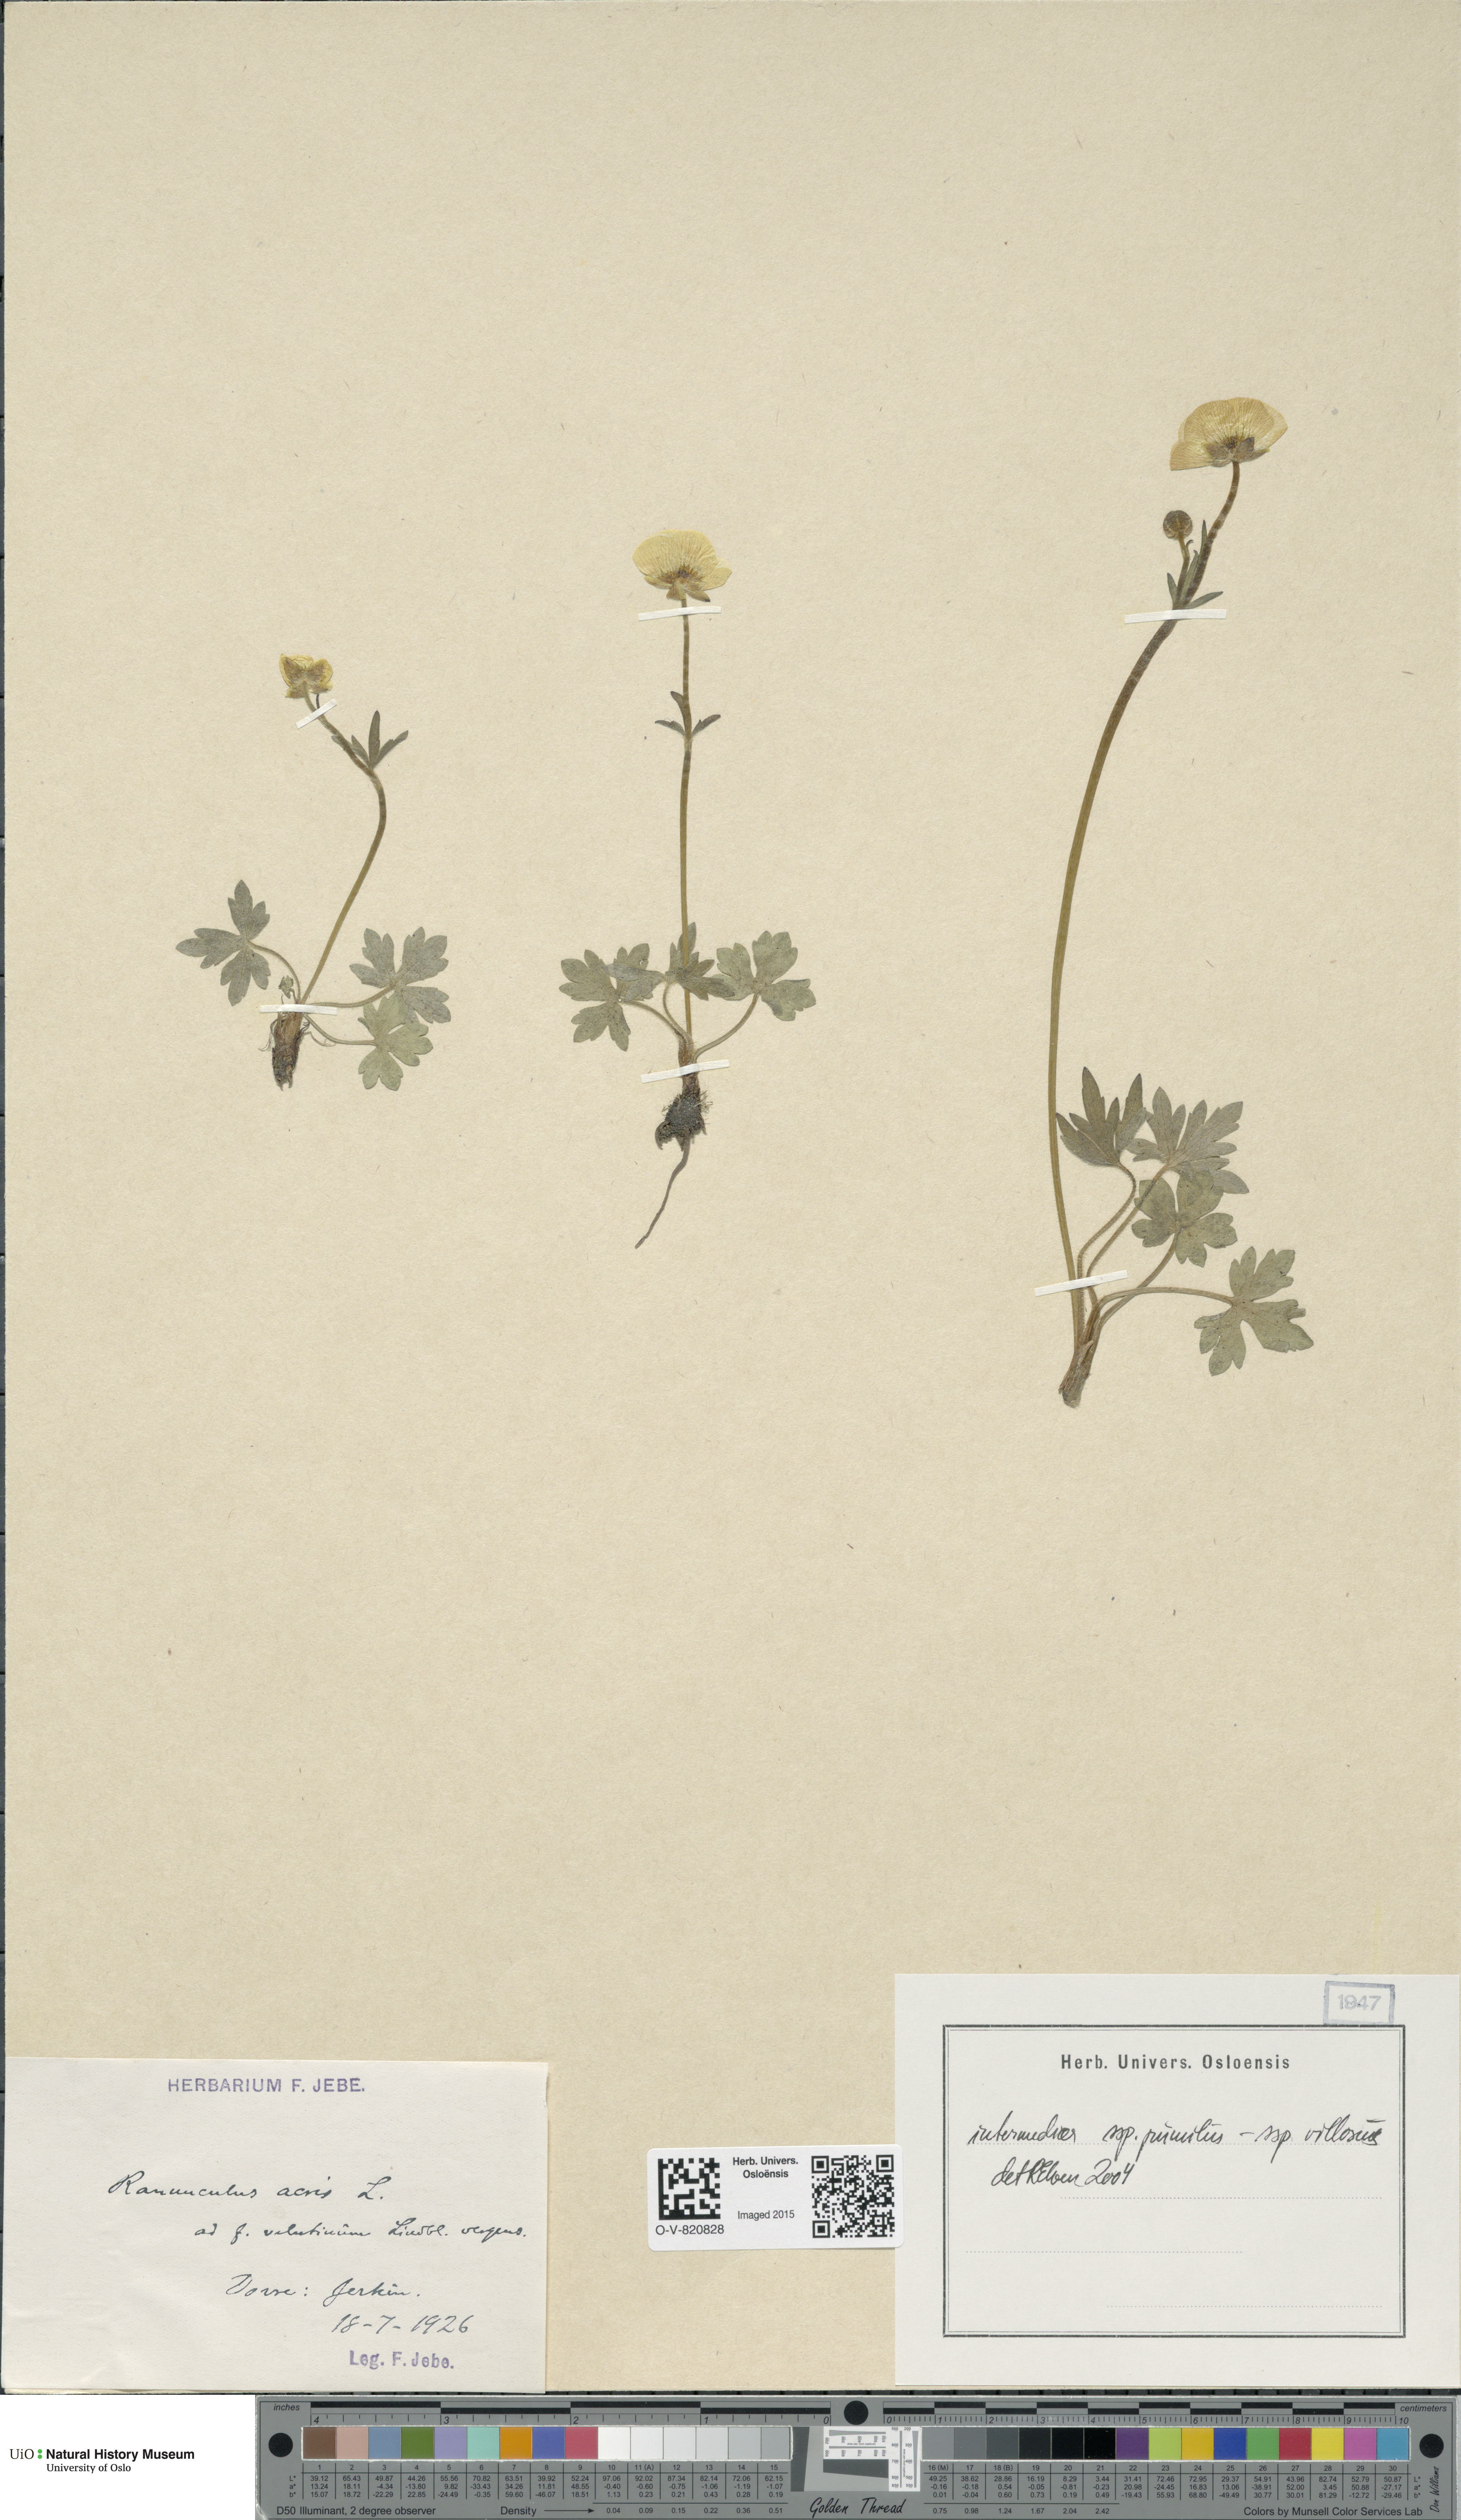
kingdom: Plantae
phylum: Tracheophyta
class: Magnoliopsida
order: Ranunculales
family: Ranunculaceae
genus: Ranunculus
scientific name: Ranunculus
